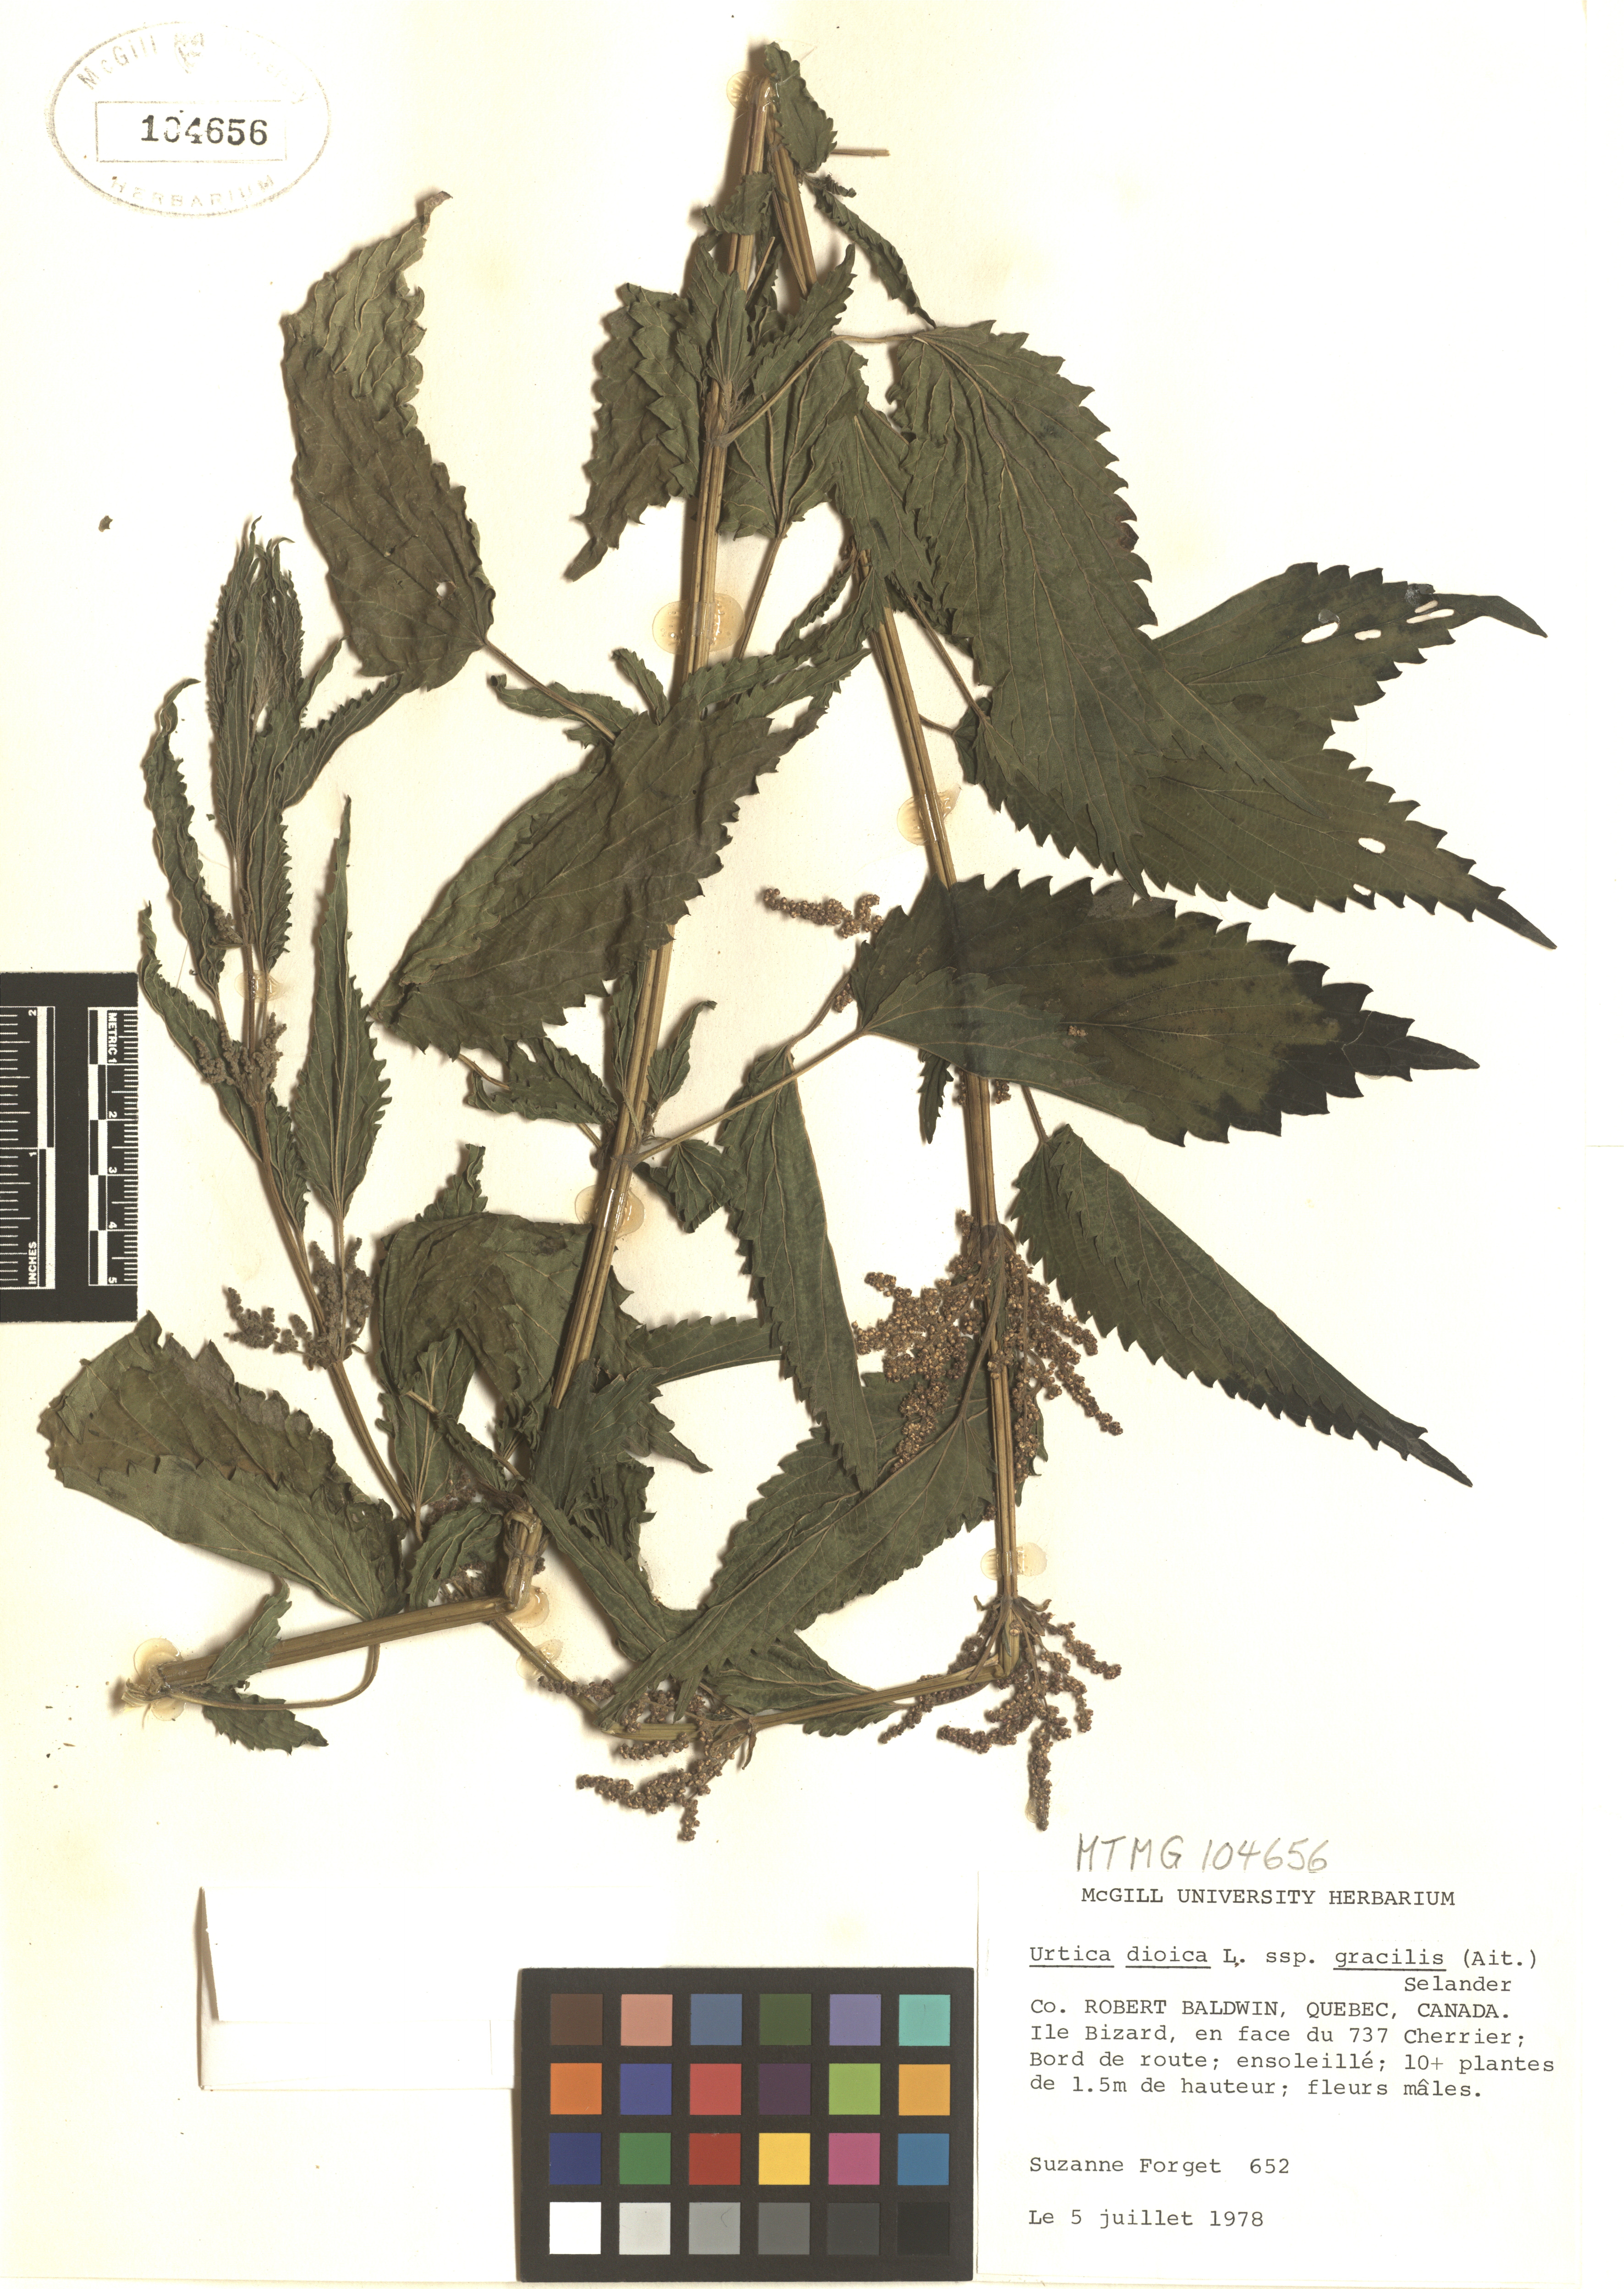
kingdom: Plantae
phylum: Tracheophyta
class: Magnoliopsida
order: Rosales
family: Urticaceae
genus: Urtica
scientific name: Urtica gracilis
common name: Slender stinging nettle
